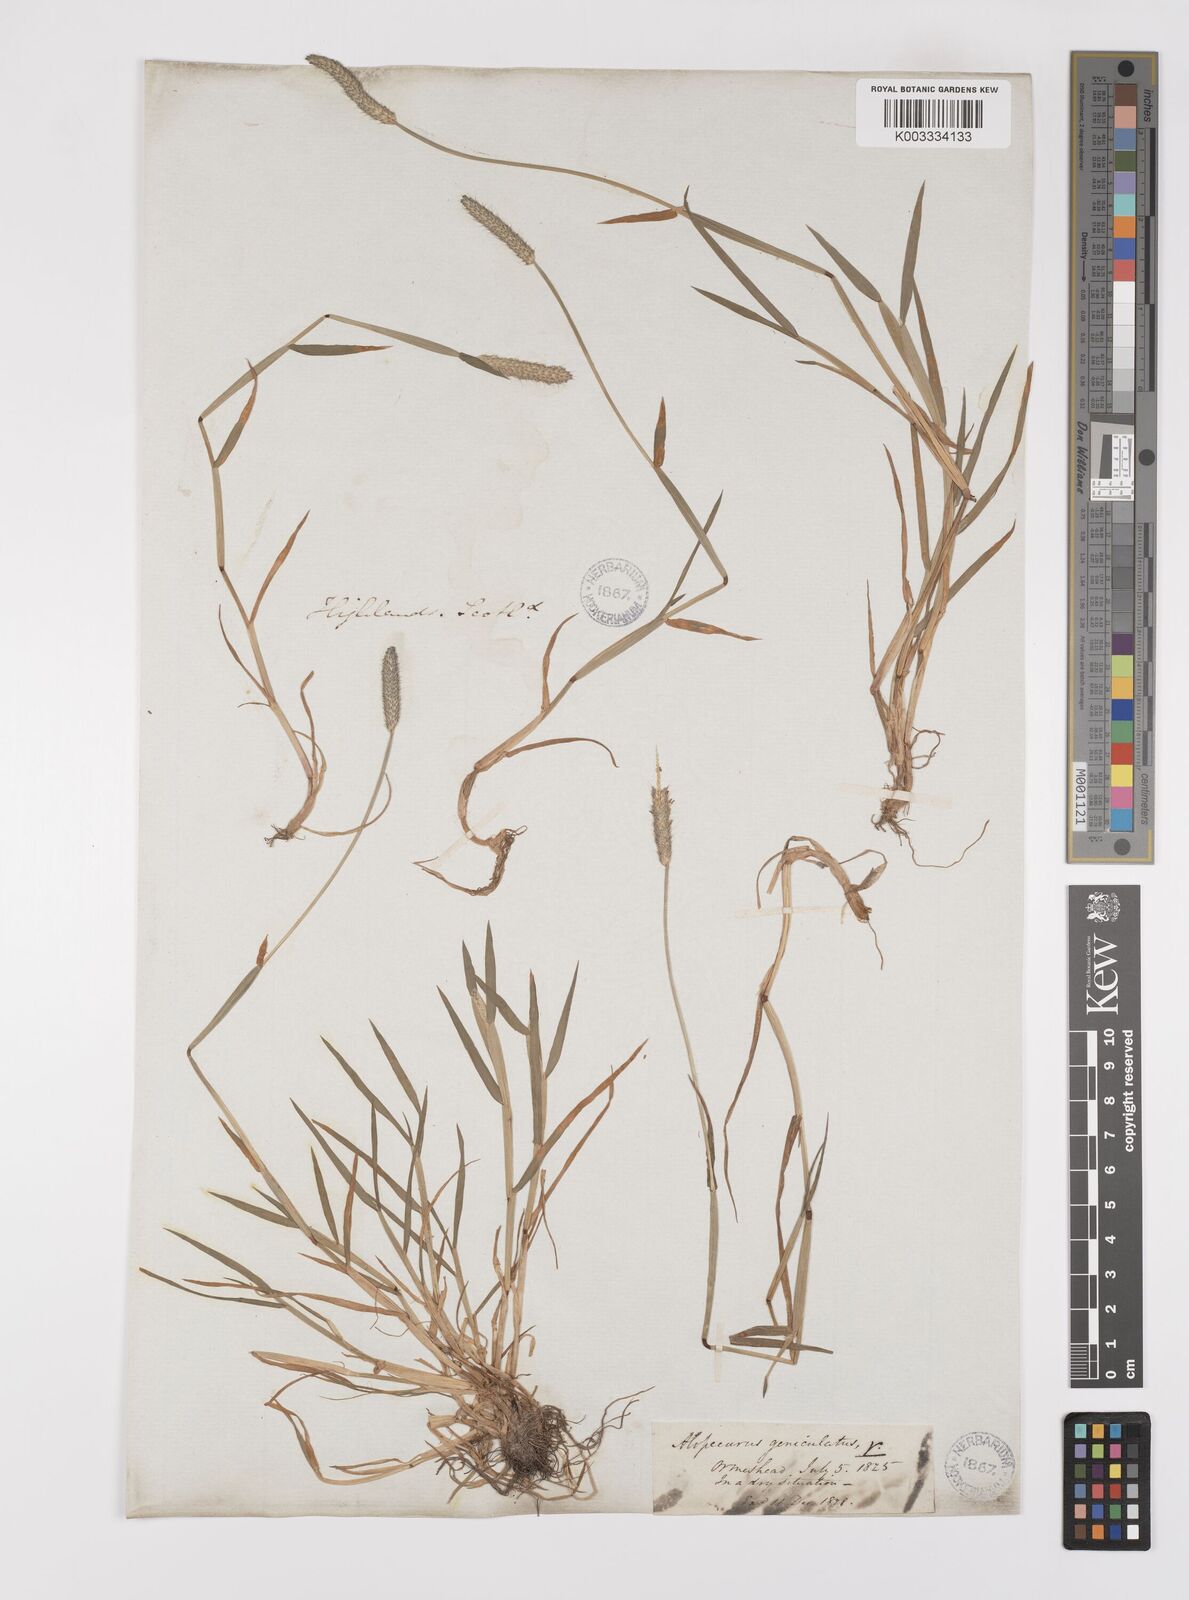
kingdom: Plantae
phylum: Tracheophyta
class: Liliopsida
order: Poales
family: Poaceae
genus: Alopecurus
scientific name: Alopecurus geniculatus
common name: Water foxtail
